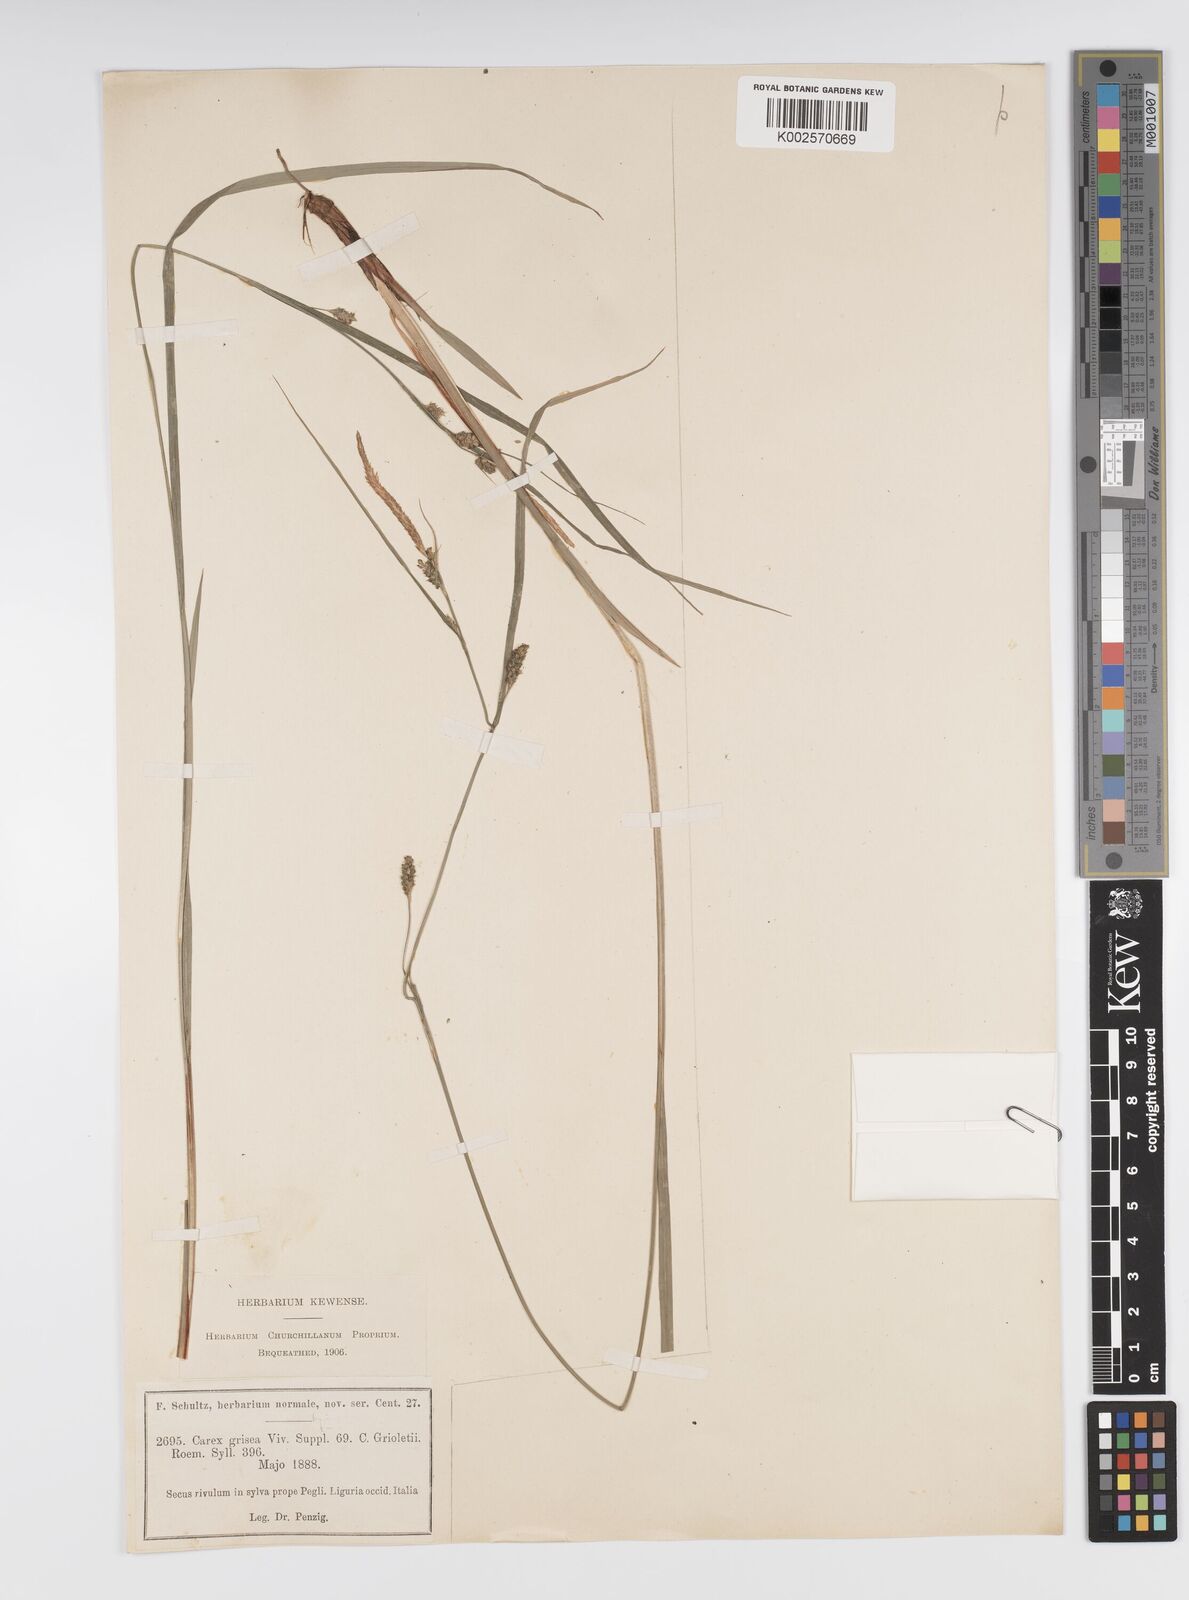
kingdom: Plantae
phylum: Tracheophyta
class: Liliopsida
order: Poales
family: Cyperaceae
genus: Carex
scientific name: Carex grioletii
